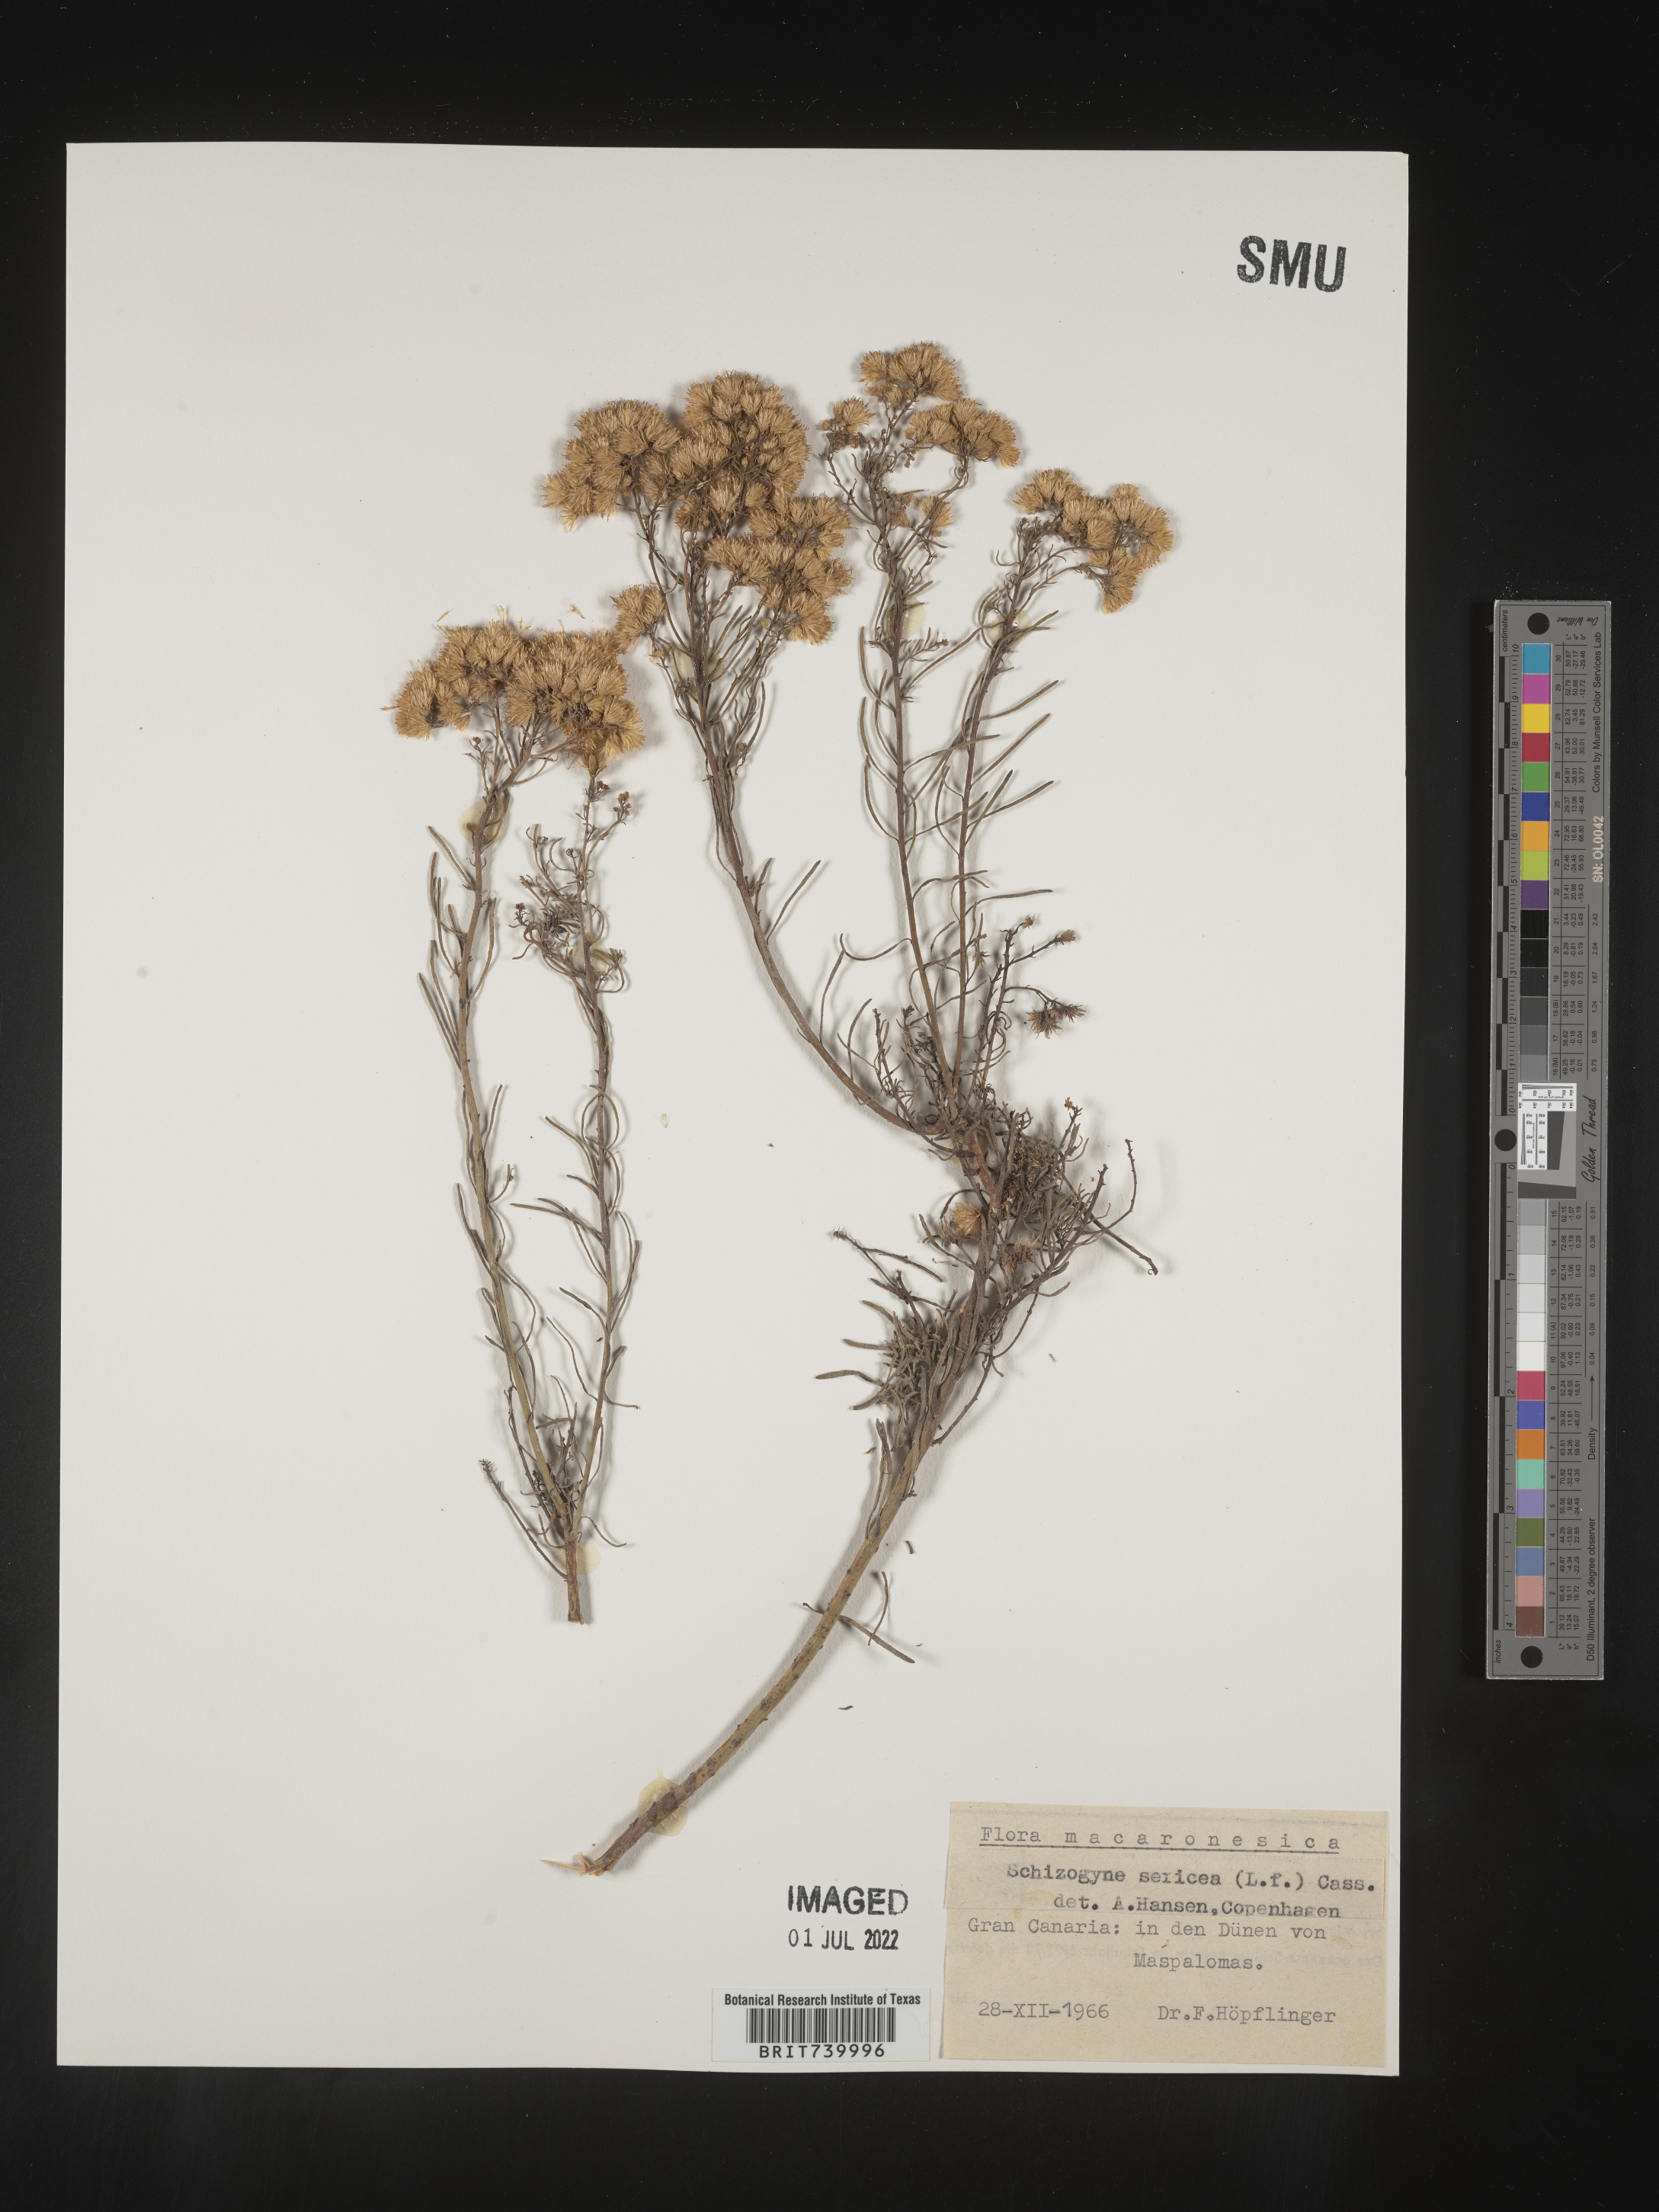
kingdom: Plantae
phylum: Tracheophyta
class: Magnoliopsida
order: Asterales
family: Asteraceae
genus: Schizogyne
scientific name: Schizogyne
